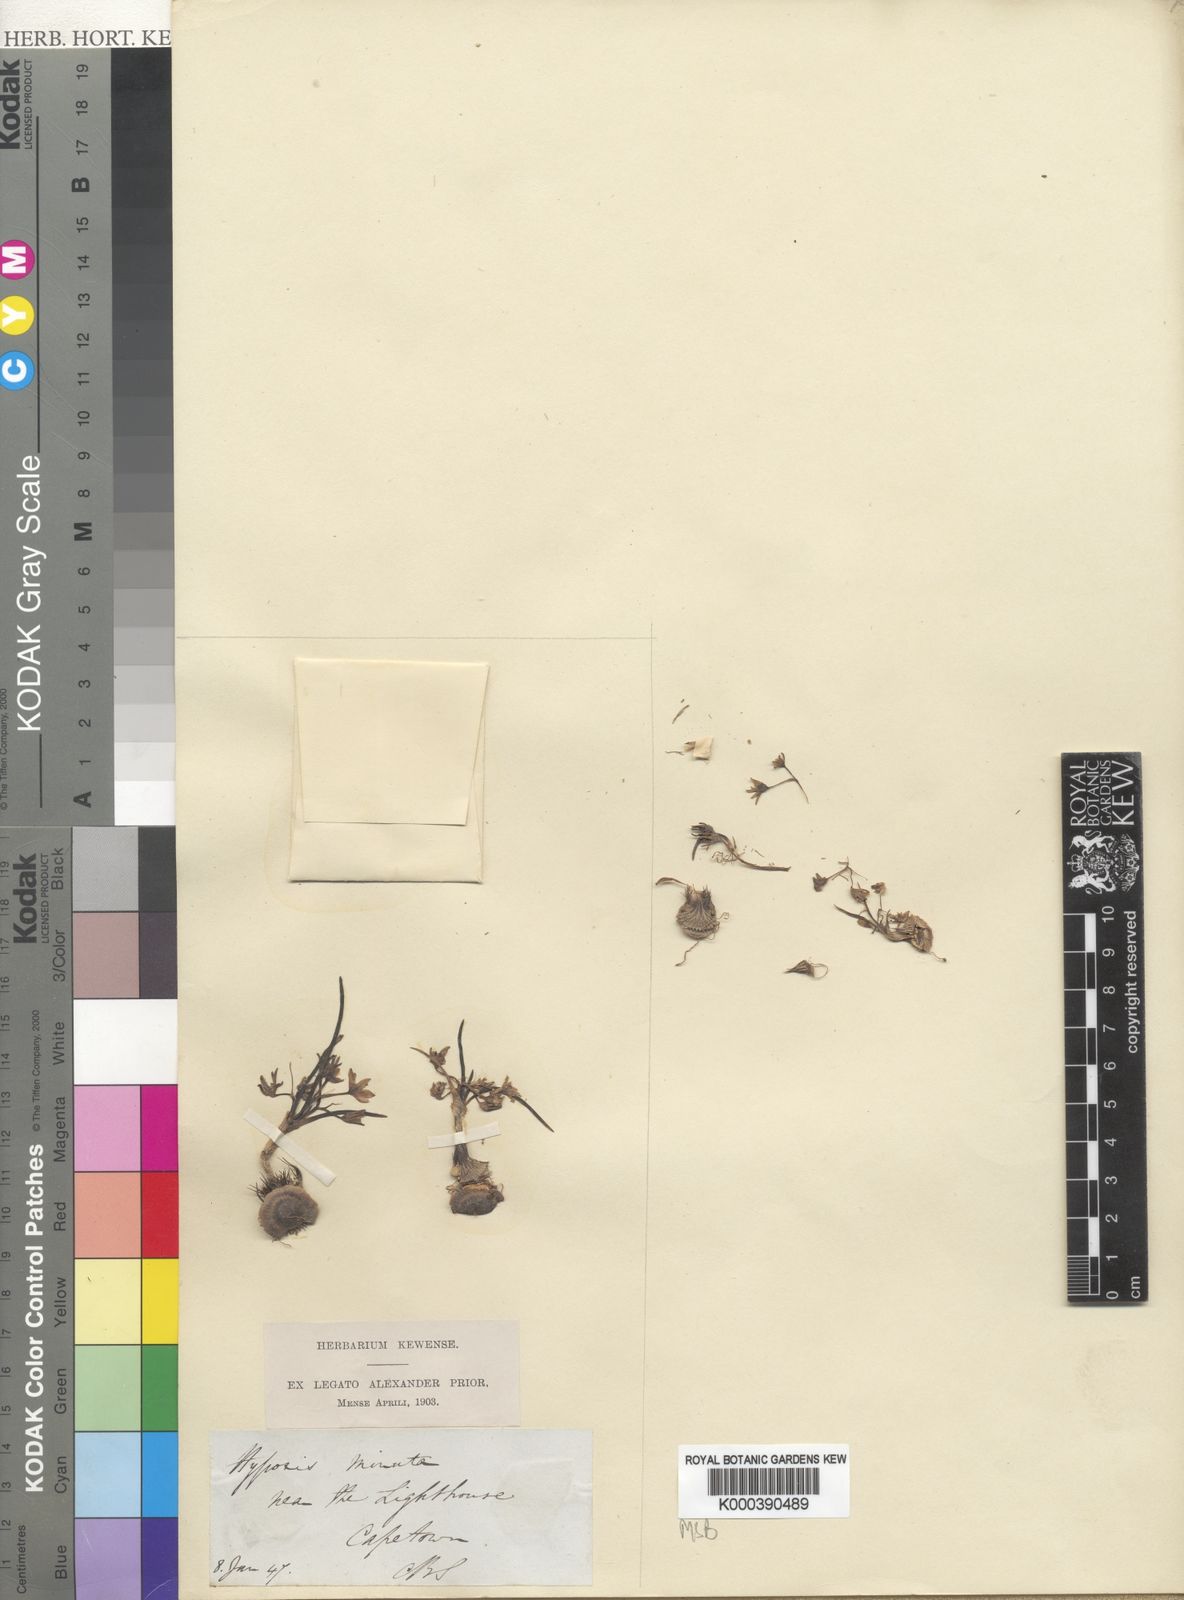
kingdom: Plantae
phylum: Tracheophyta
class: Liliopsida
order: Asparagales
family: Hypoxidaceae
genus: Pauridia
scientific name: Pauridia pygmaea
